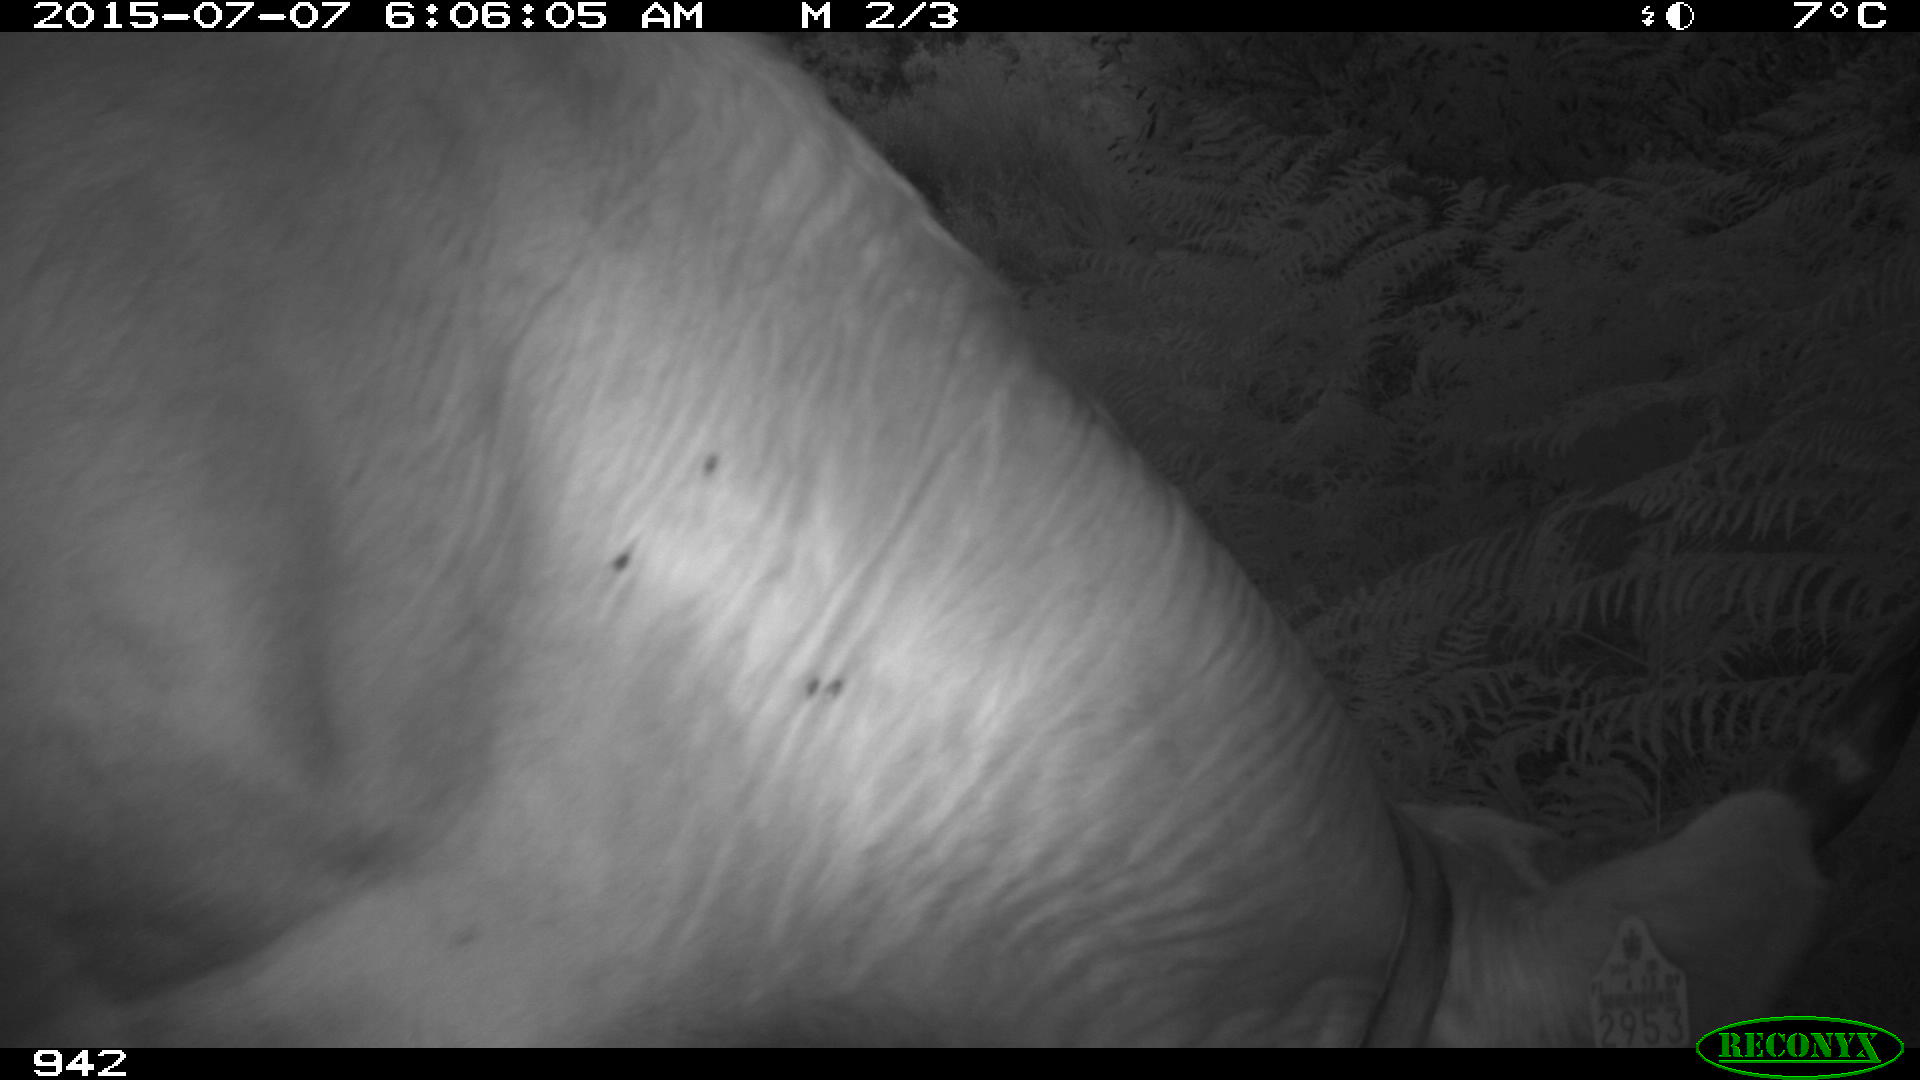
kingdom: Animalia
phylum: Chordata
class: Mammalia
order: Artiodactyla
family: Bovidae
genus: Bos
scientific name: Bos taurus
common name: Domesticated cattle
